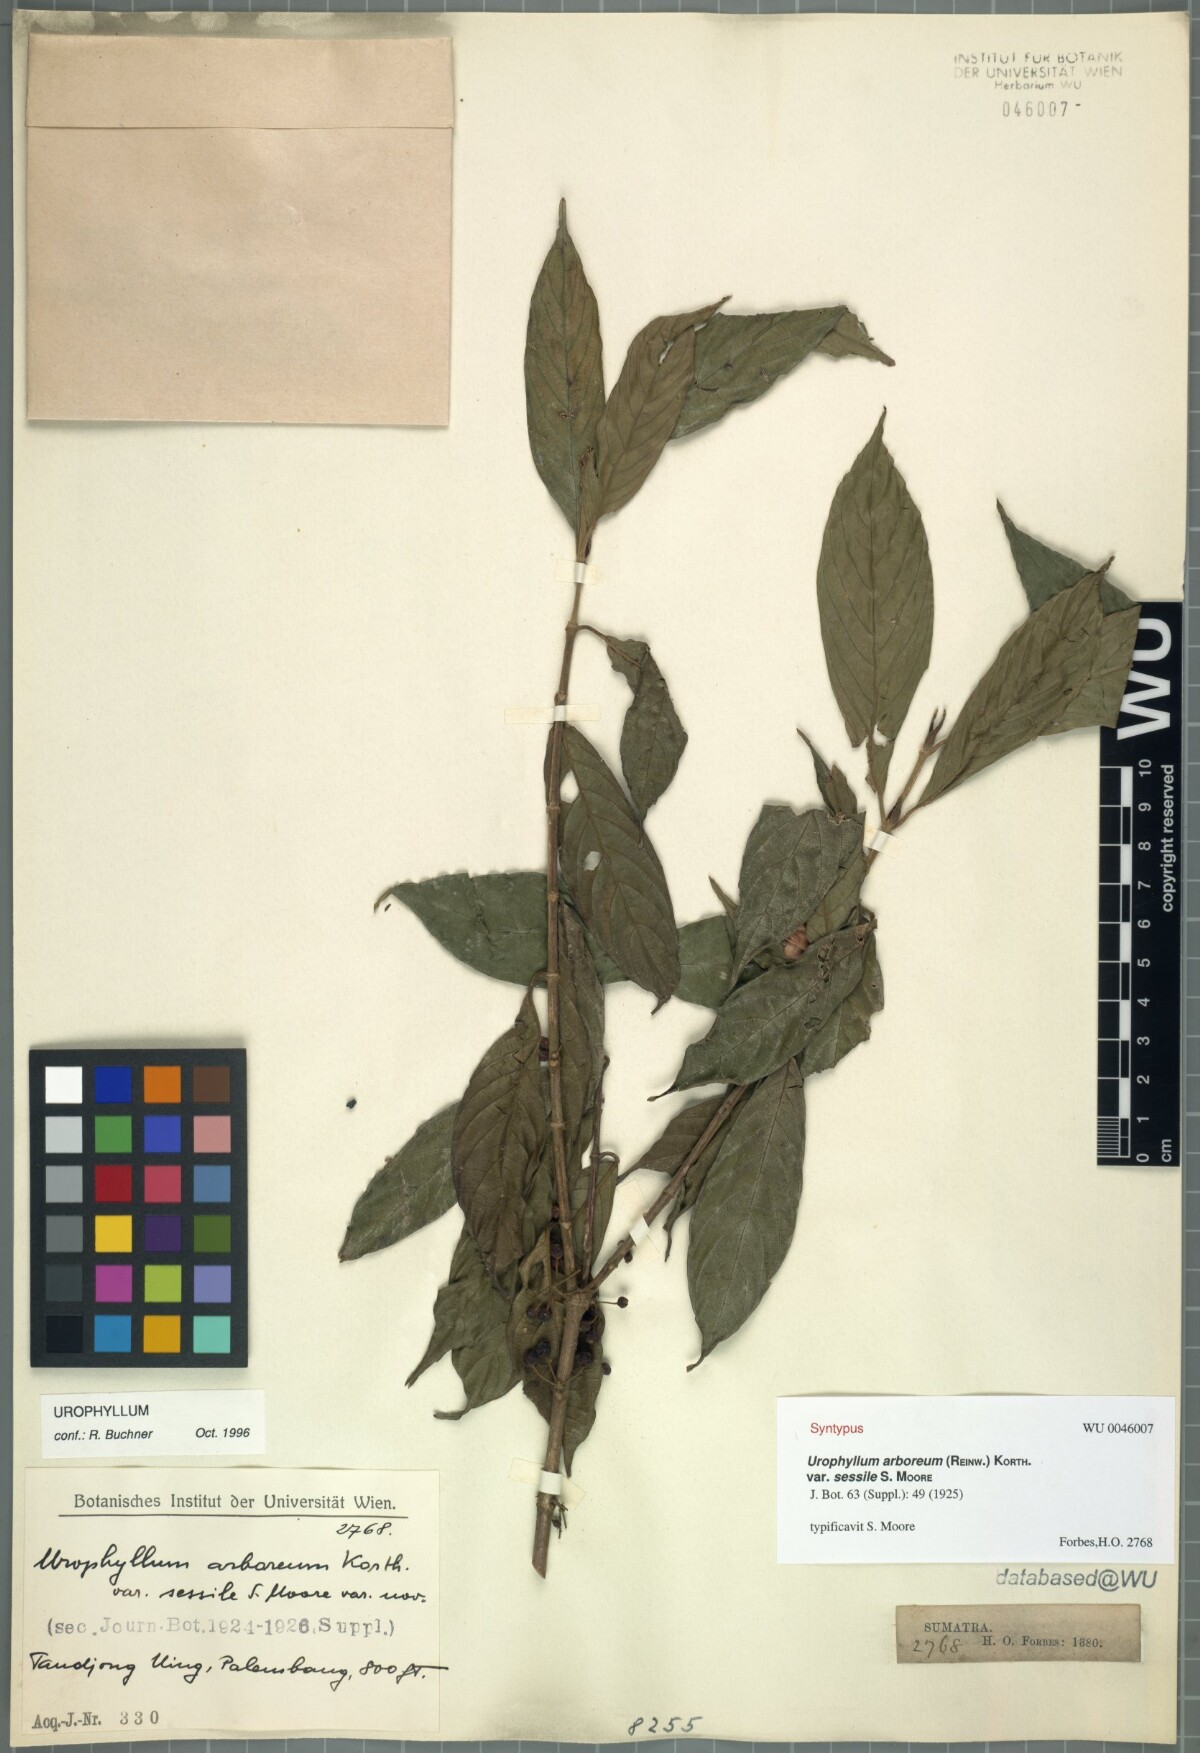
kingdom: Plantae
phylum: Tracheophyta
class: Magnoliopsida
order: Gentianales
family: Rubiaceae
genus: Urophyllum
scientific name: Urophyllum arboreum
